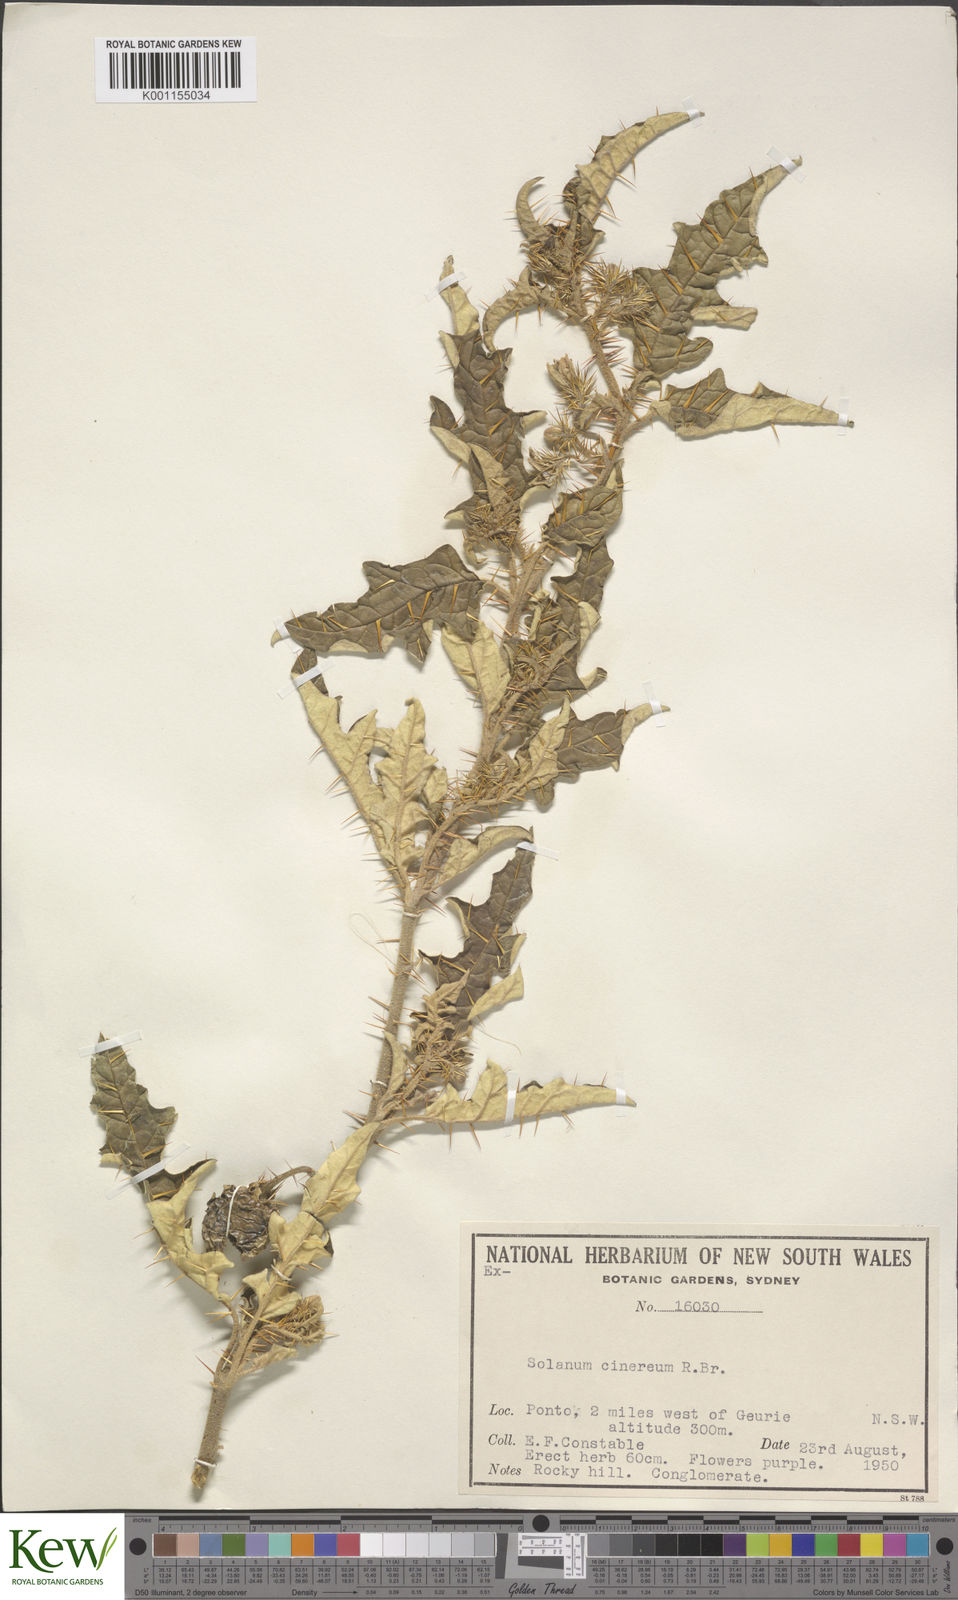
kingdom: Plantae
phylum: Tracheophyta
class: Magnoliopsida
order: Solanales
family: Solanaceae
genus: Solanum
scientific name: Solanum cinereum
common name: Narrawa-bur
